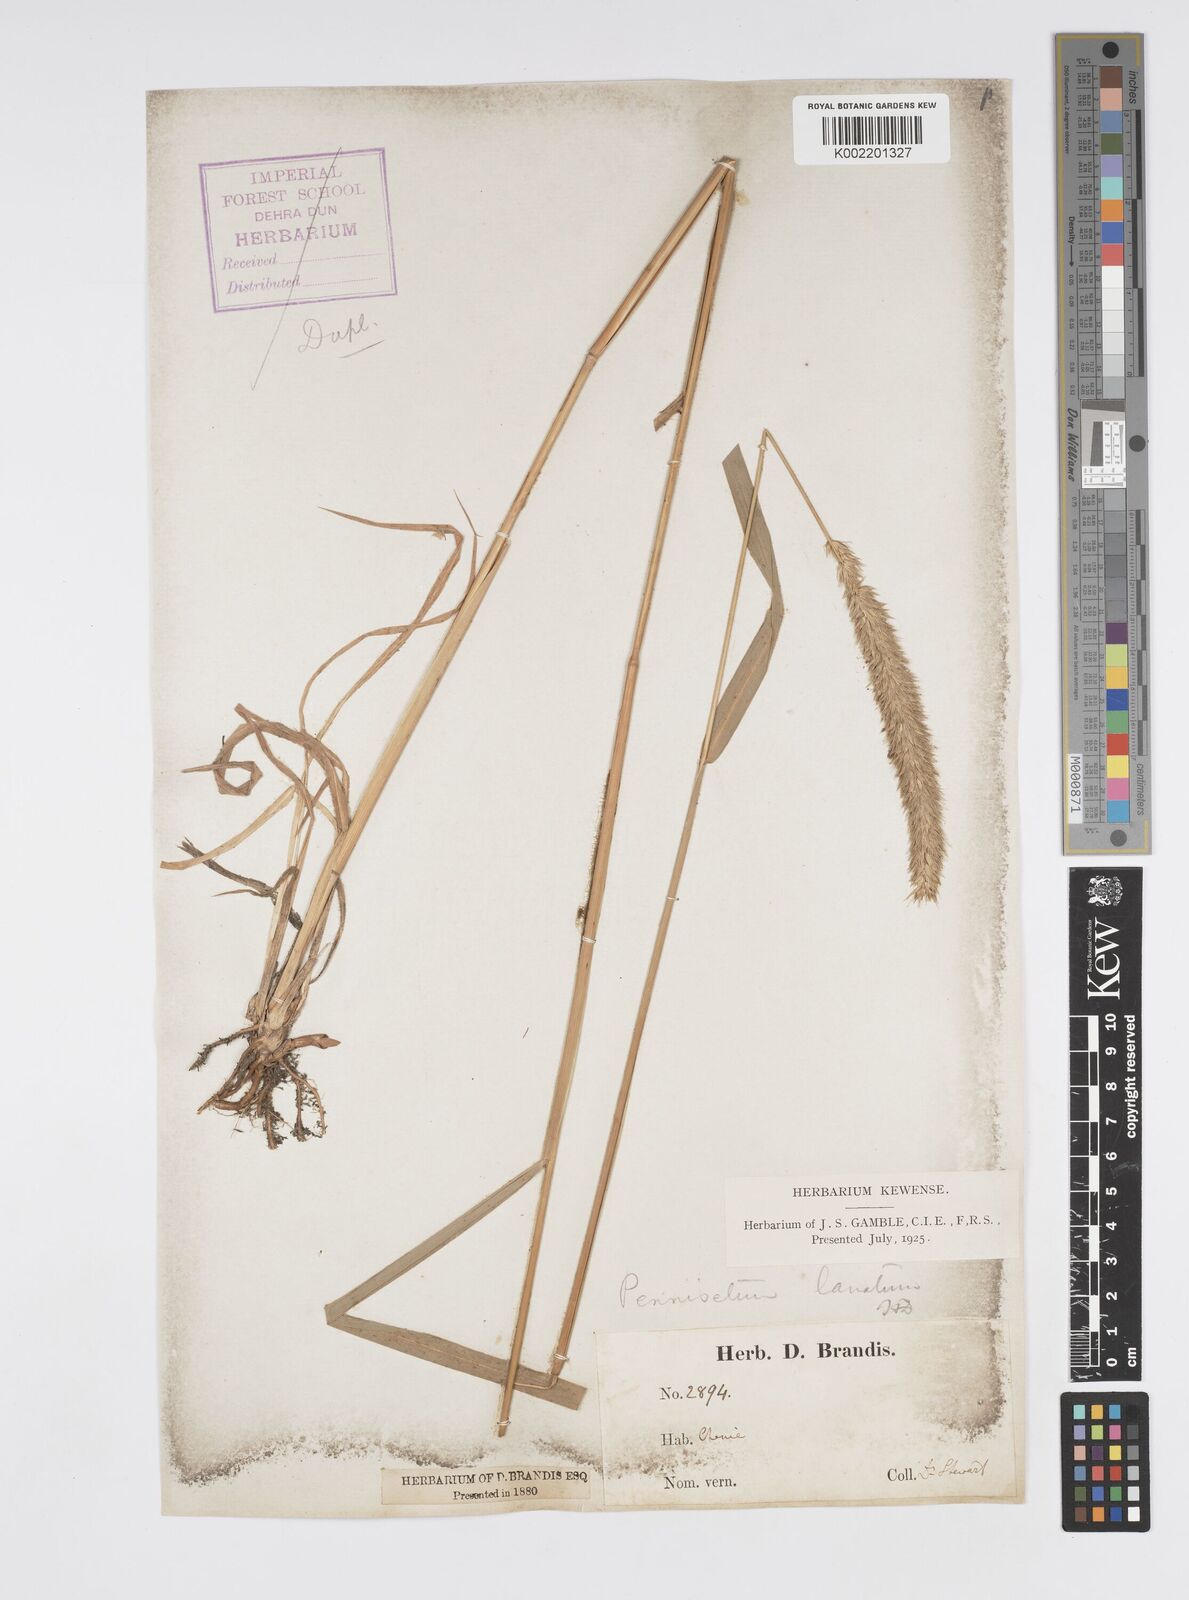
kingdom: Plantae
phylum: Tracheophyta
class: Liliopsida
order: Poales
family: Poaceae
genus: Cenchrus
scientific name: Cenchrus lanatus
